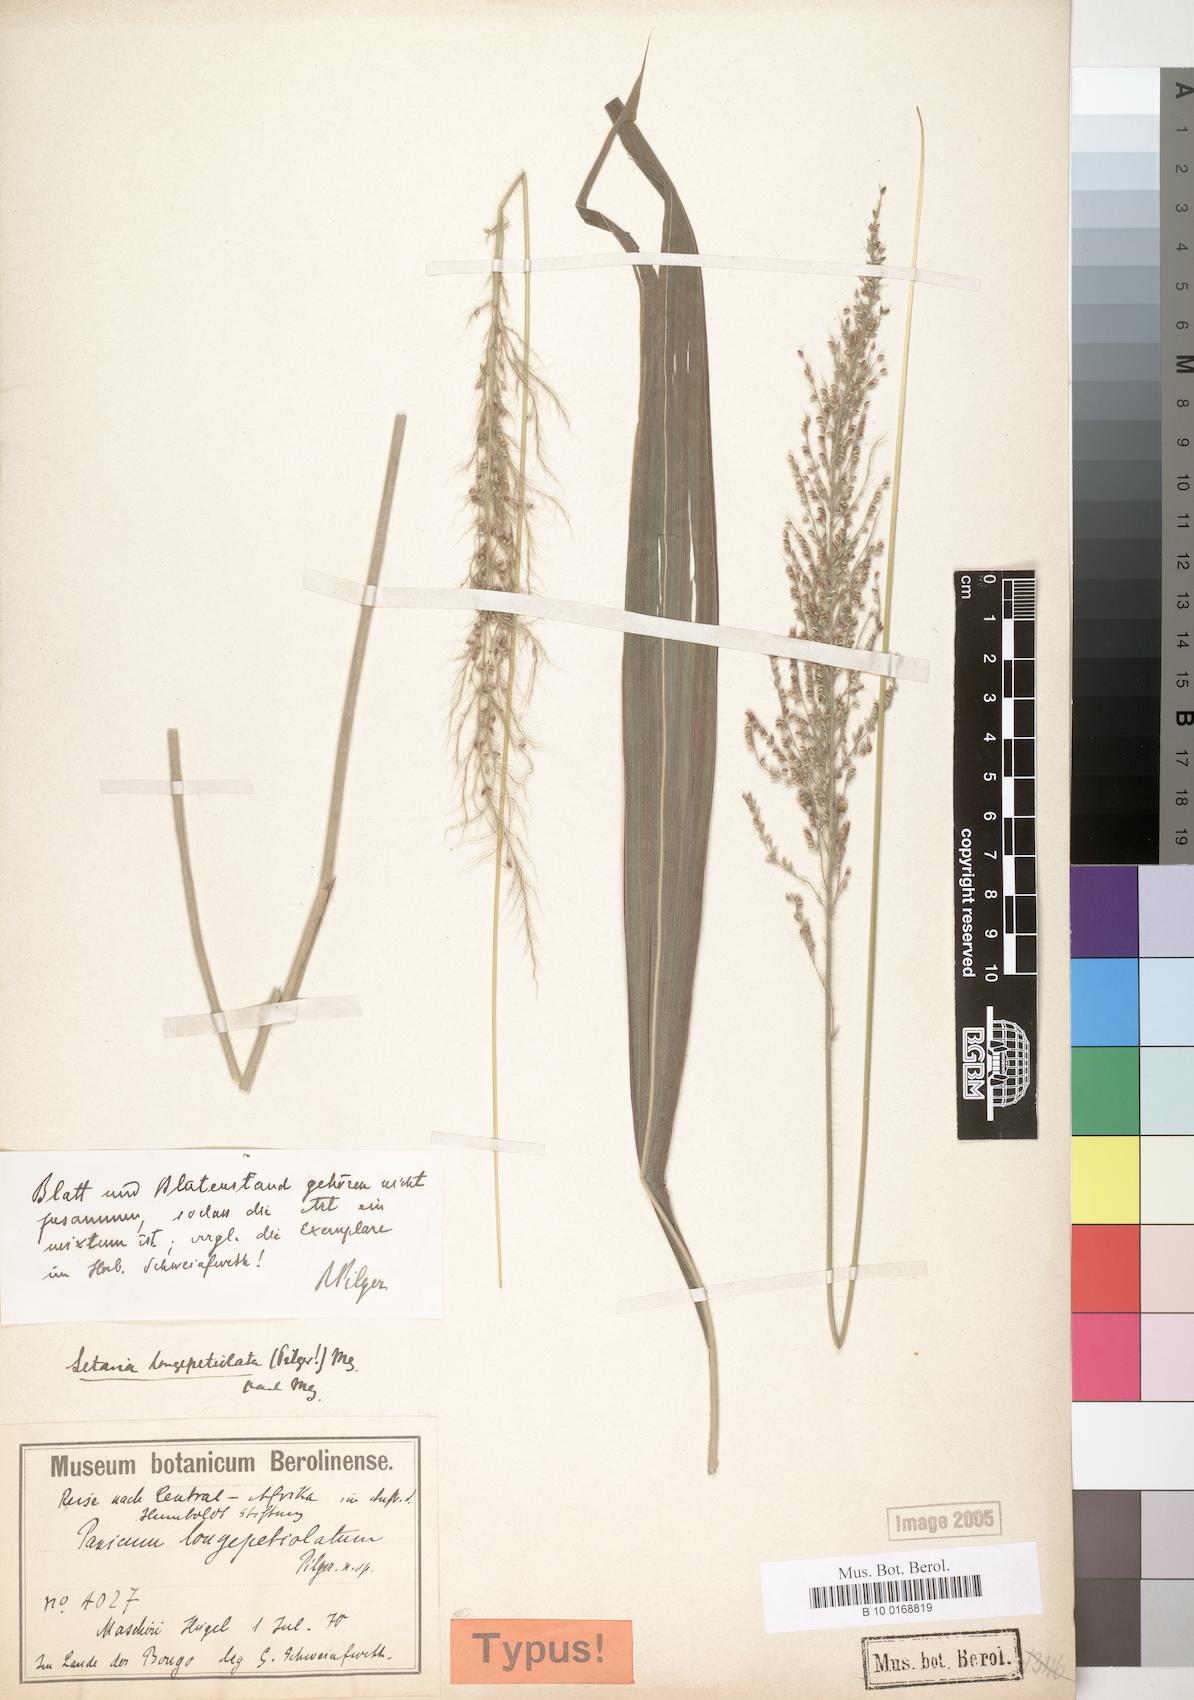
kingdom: Plantae
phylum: Tracheophyta
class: Liliopsida
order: Poales
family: Poaceae
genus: Setaria
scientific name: Setaria longiseta
